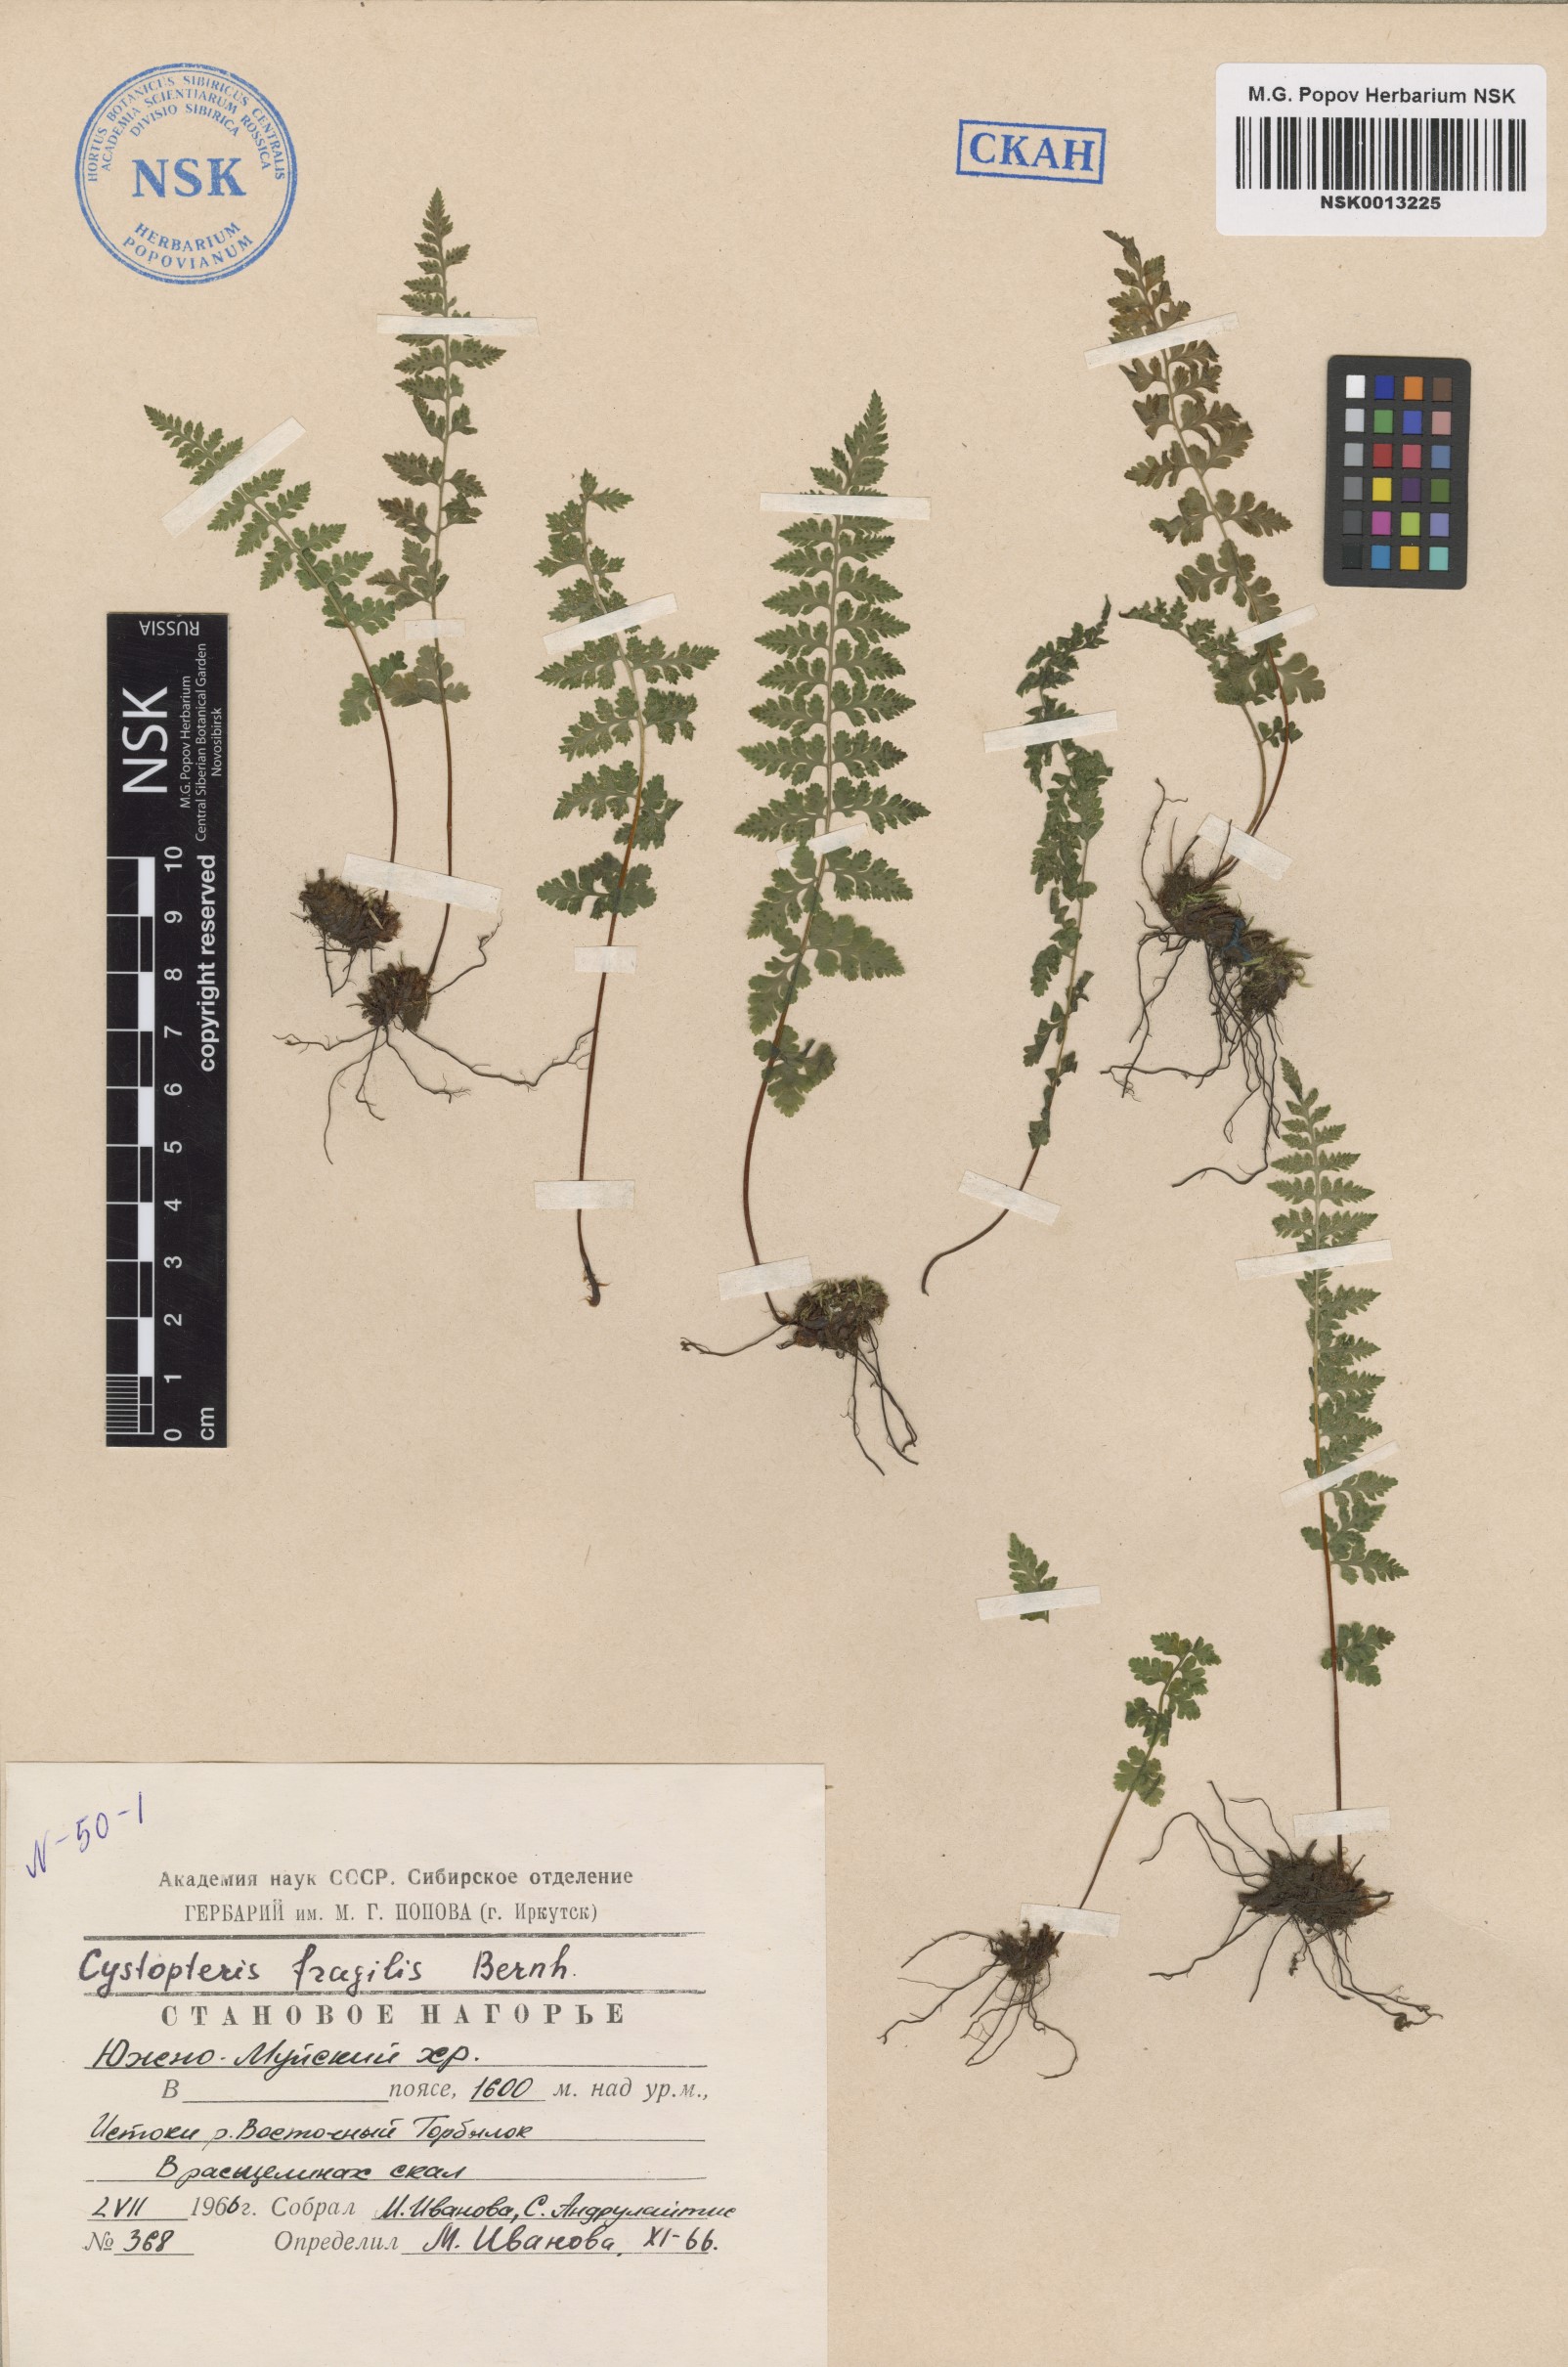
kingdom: Plantae
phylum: Tracheophyta
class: Polypodiopsida
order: Polypodiales
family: Cystopteridaceae
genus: Cystopteris
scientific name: Cystopteris fragilis
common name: Brittle bladder fern
